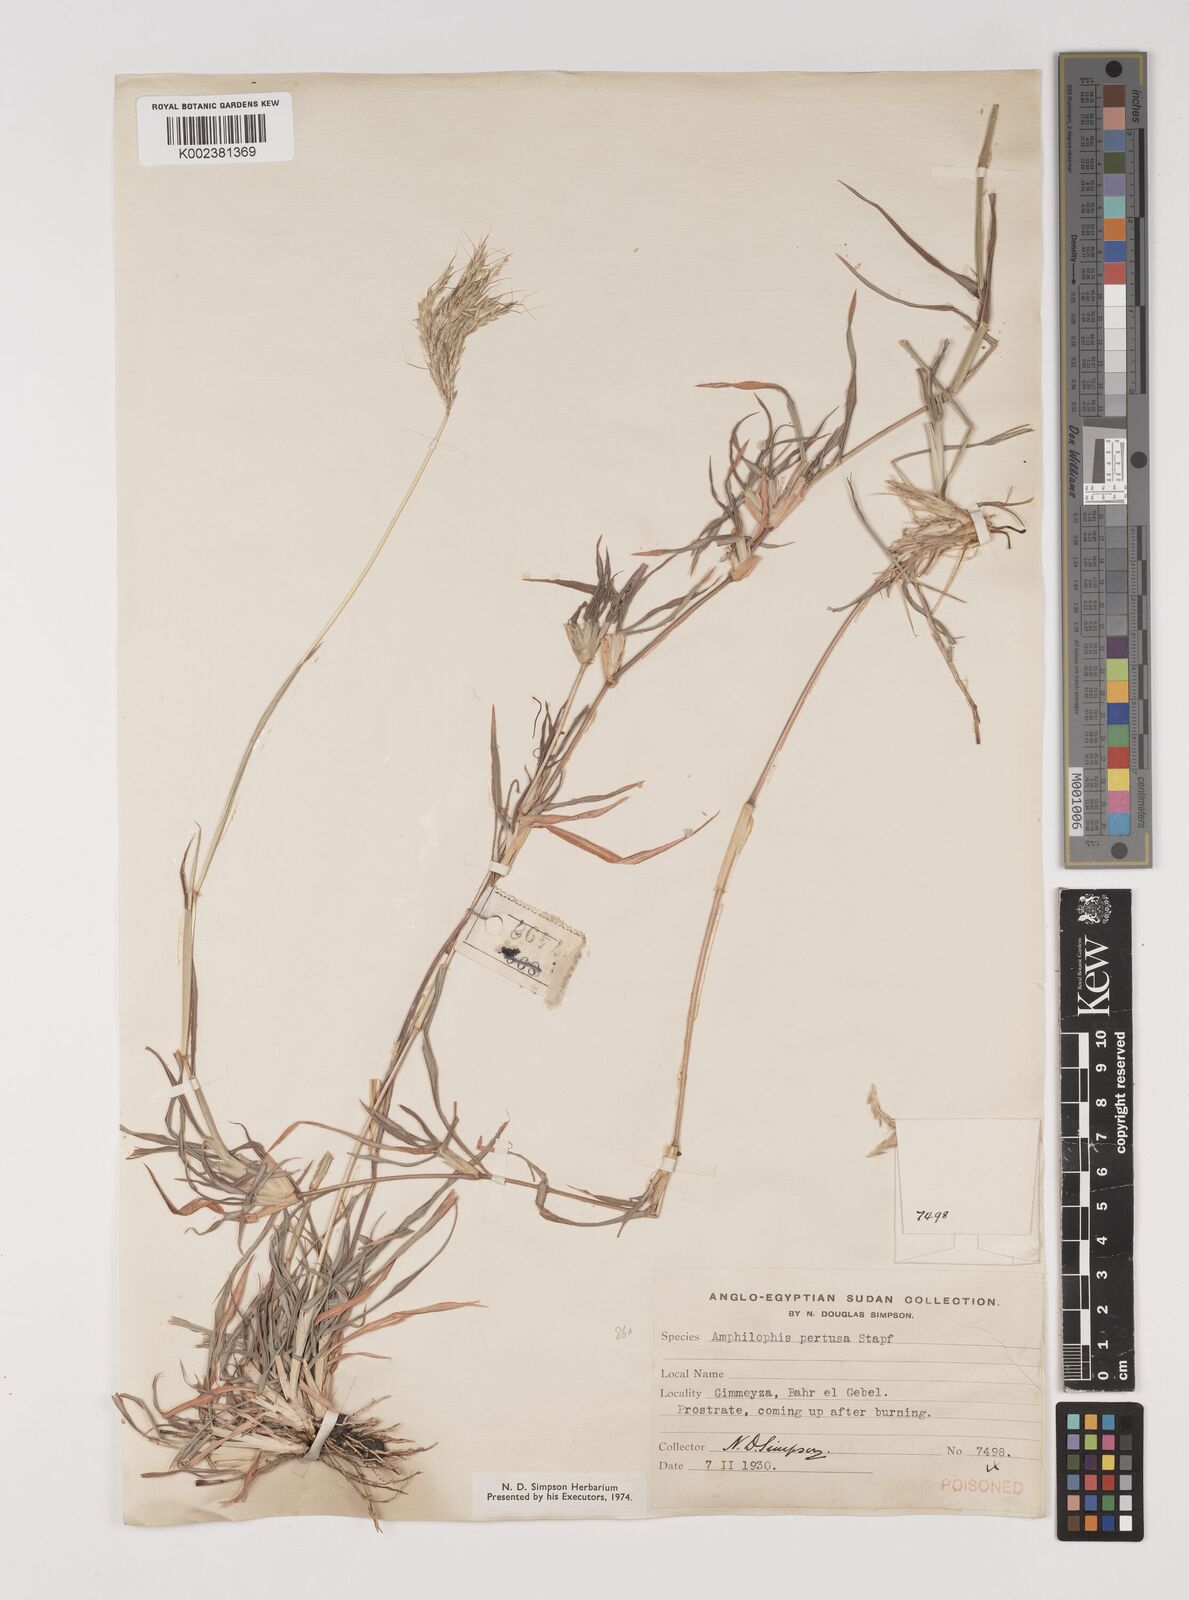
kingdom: Plantae
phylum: Tracheophyta
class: Liliopsida
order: Poales
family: Poaceae
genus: Bothriochloa
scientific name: Bothriochloa insculpta
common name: Creeping-bluegrass
